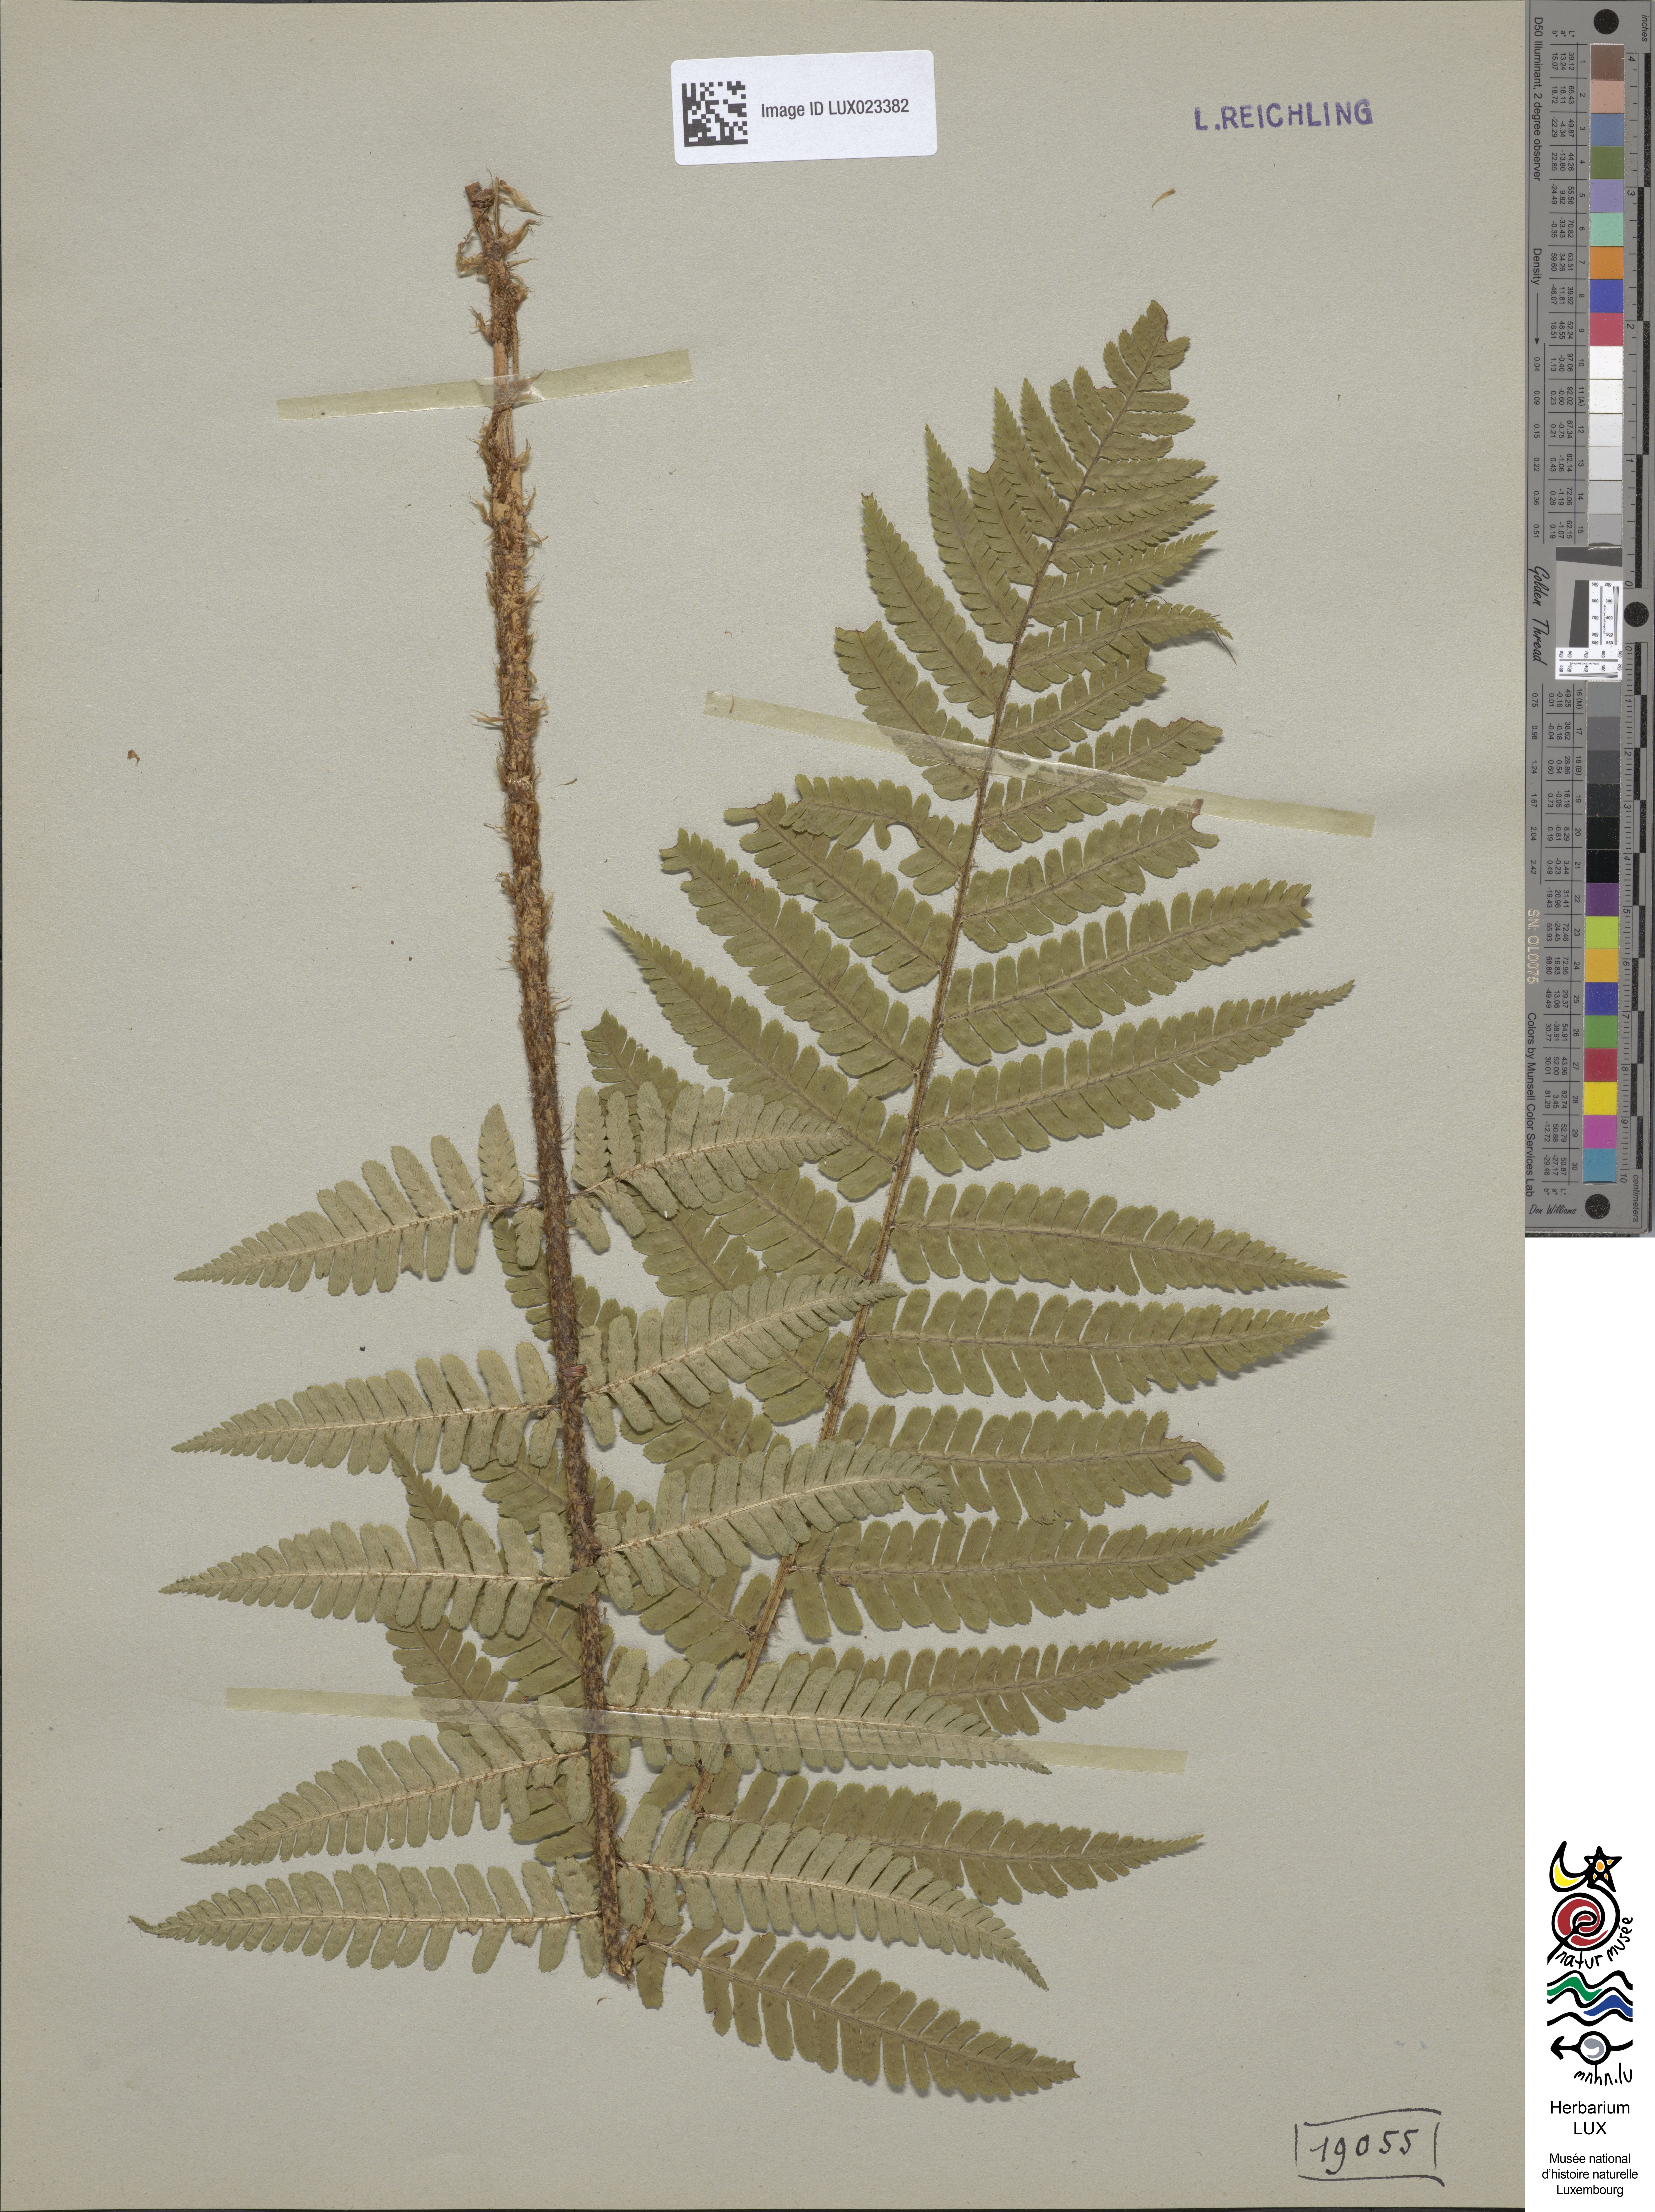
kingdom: Plantae
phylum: Tracheophyta
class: Polypodiopsida
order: Polypodiales
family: Dryopteridaceae
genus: Dryopteris
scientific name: Dryopteris borreri
